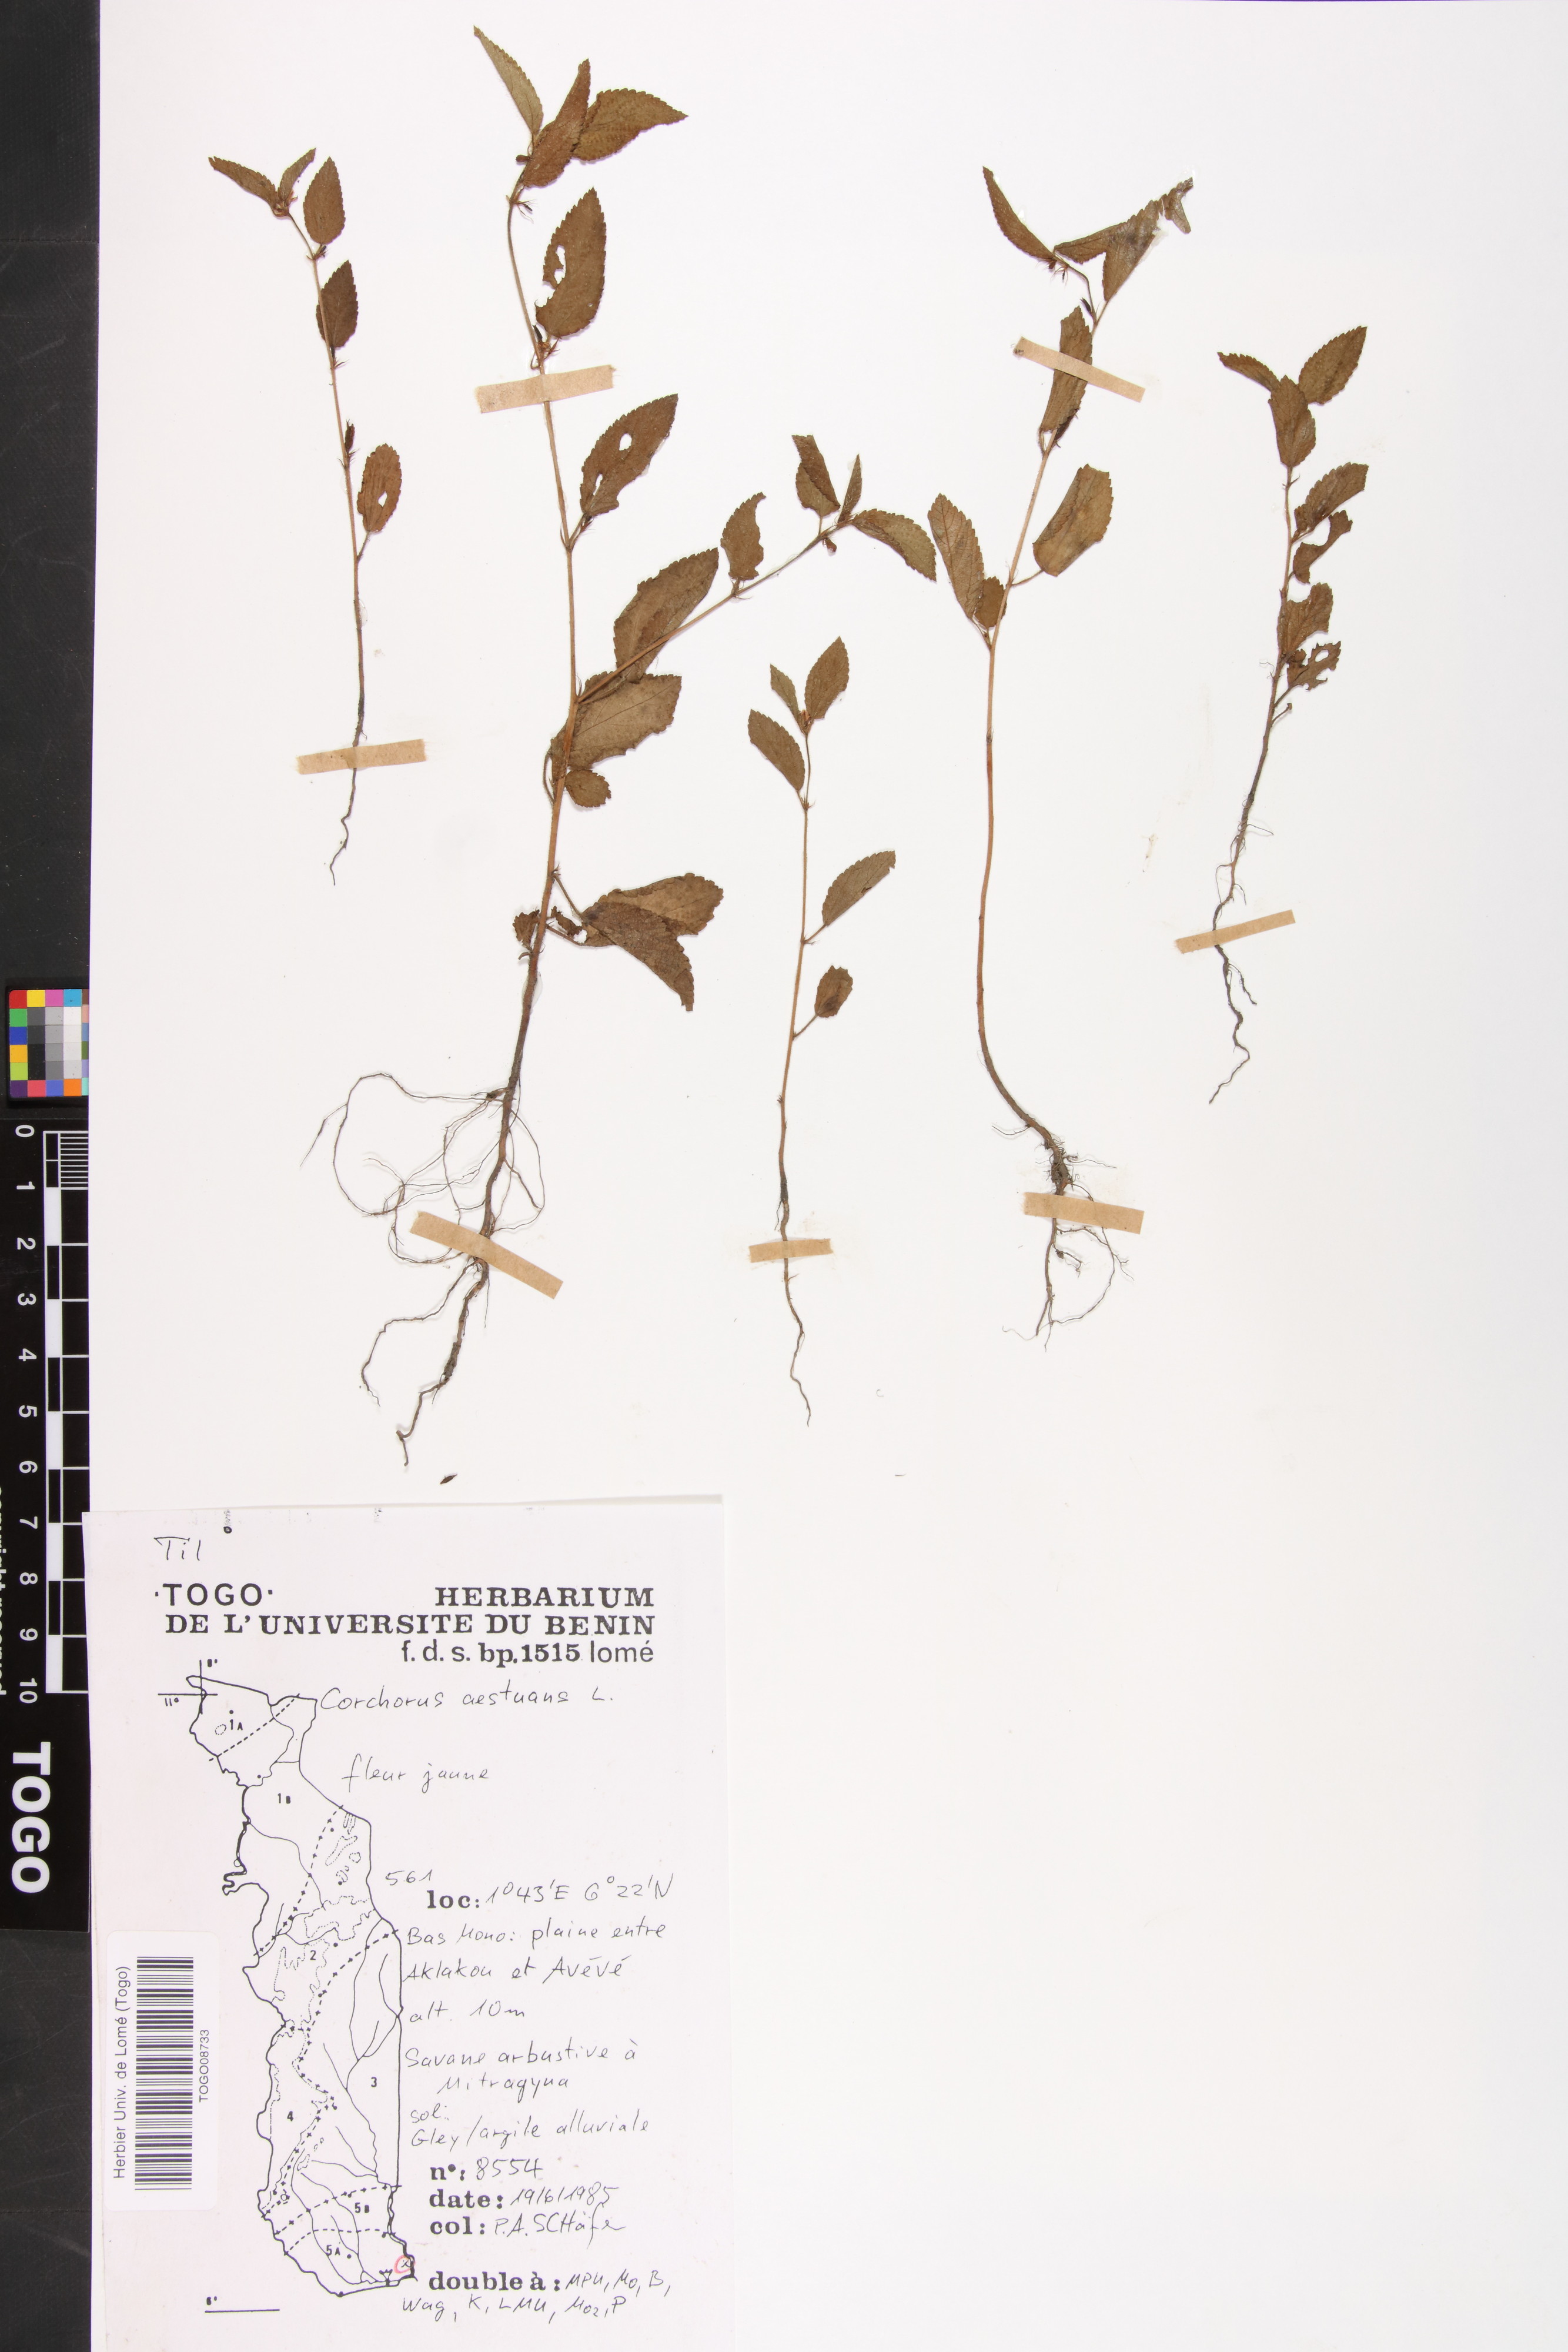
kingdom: Plantae
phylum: Tracheophyta
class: Magnoliopsida
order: Malvales
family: Malvaceae
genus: Corchorus
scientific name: Corchorus aestuans
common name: Jute
